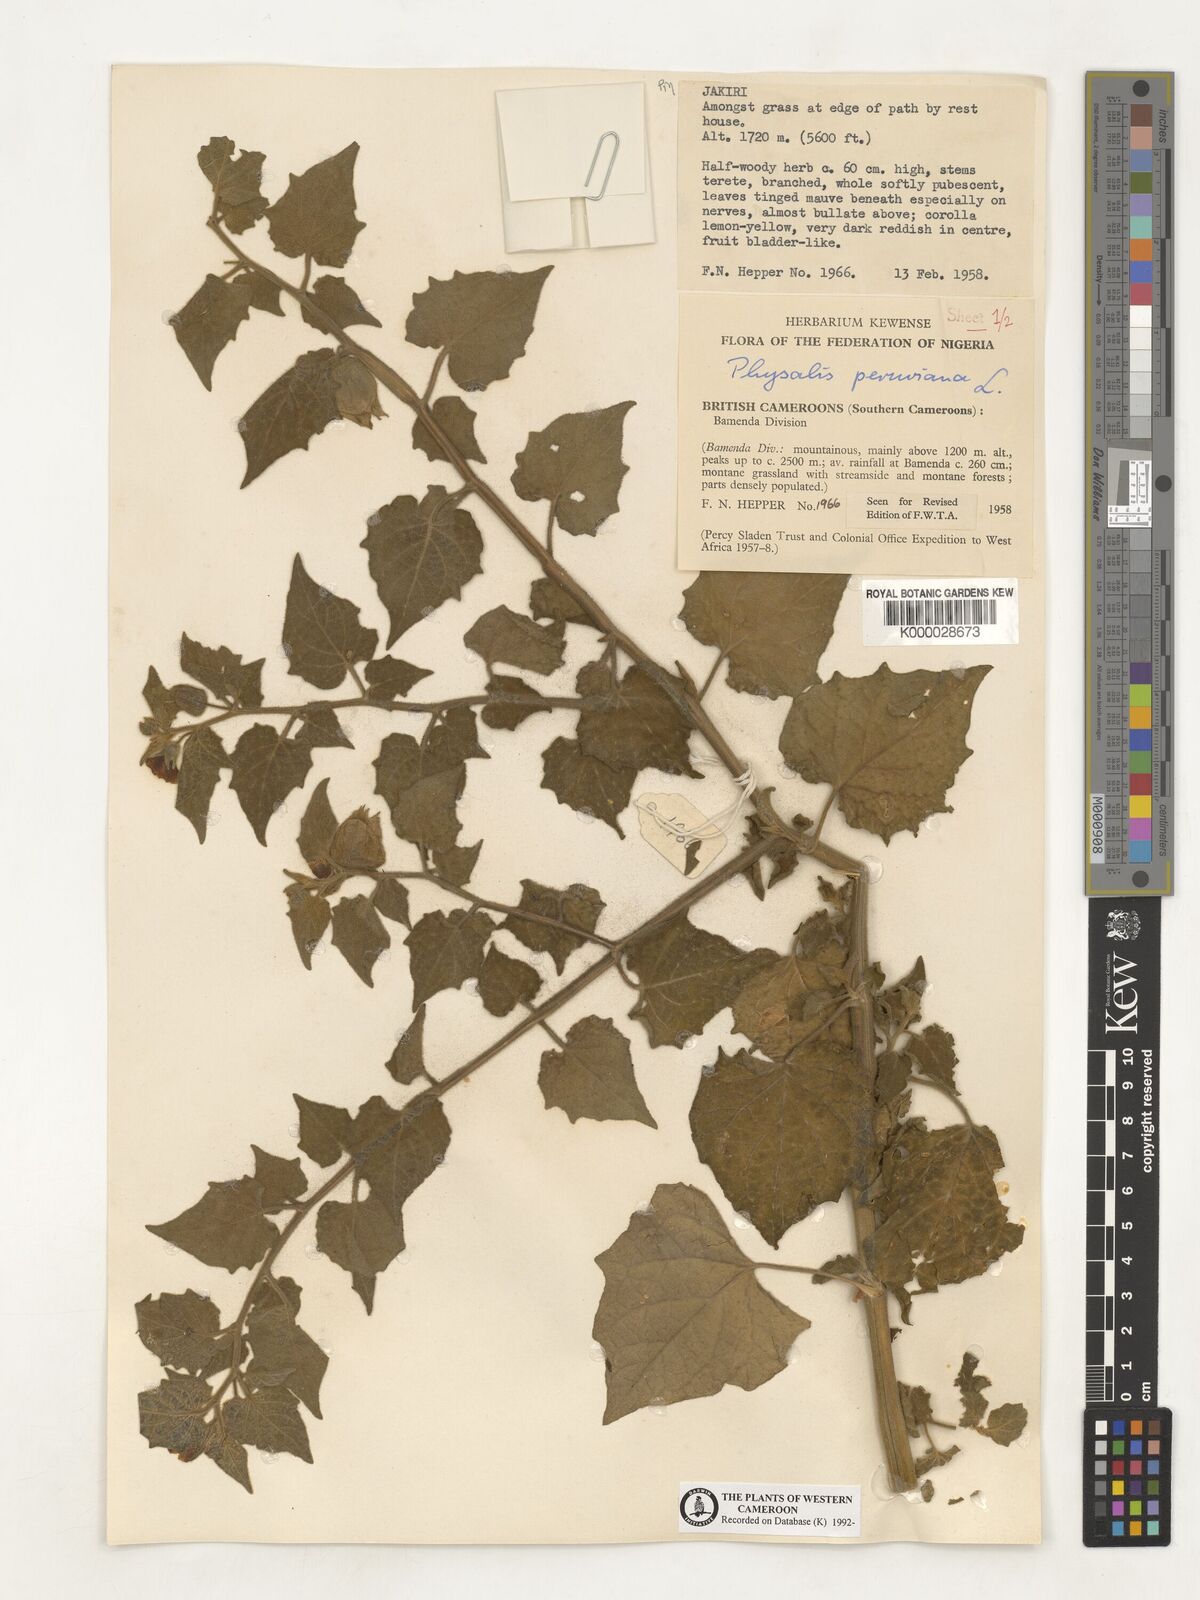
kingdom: Plantae
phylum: Tracheophyta
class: Magnoliopsida
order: Solanales
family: Solanaceae
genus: Physalis
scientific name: Physalis peruviana
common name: Cape-gooseberry
